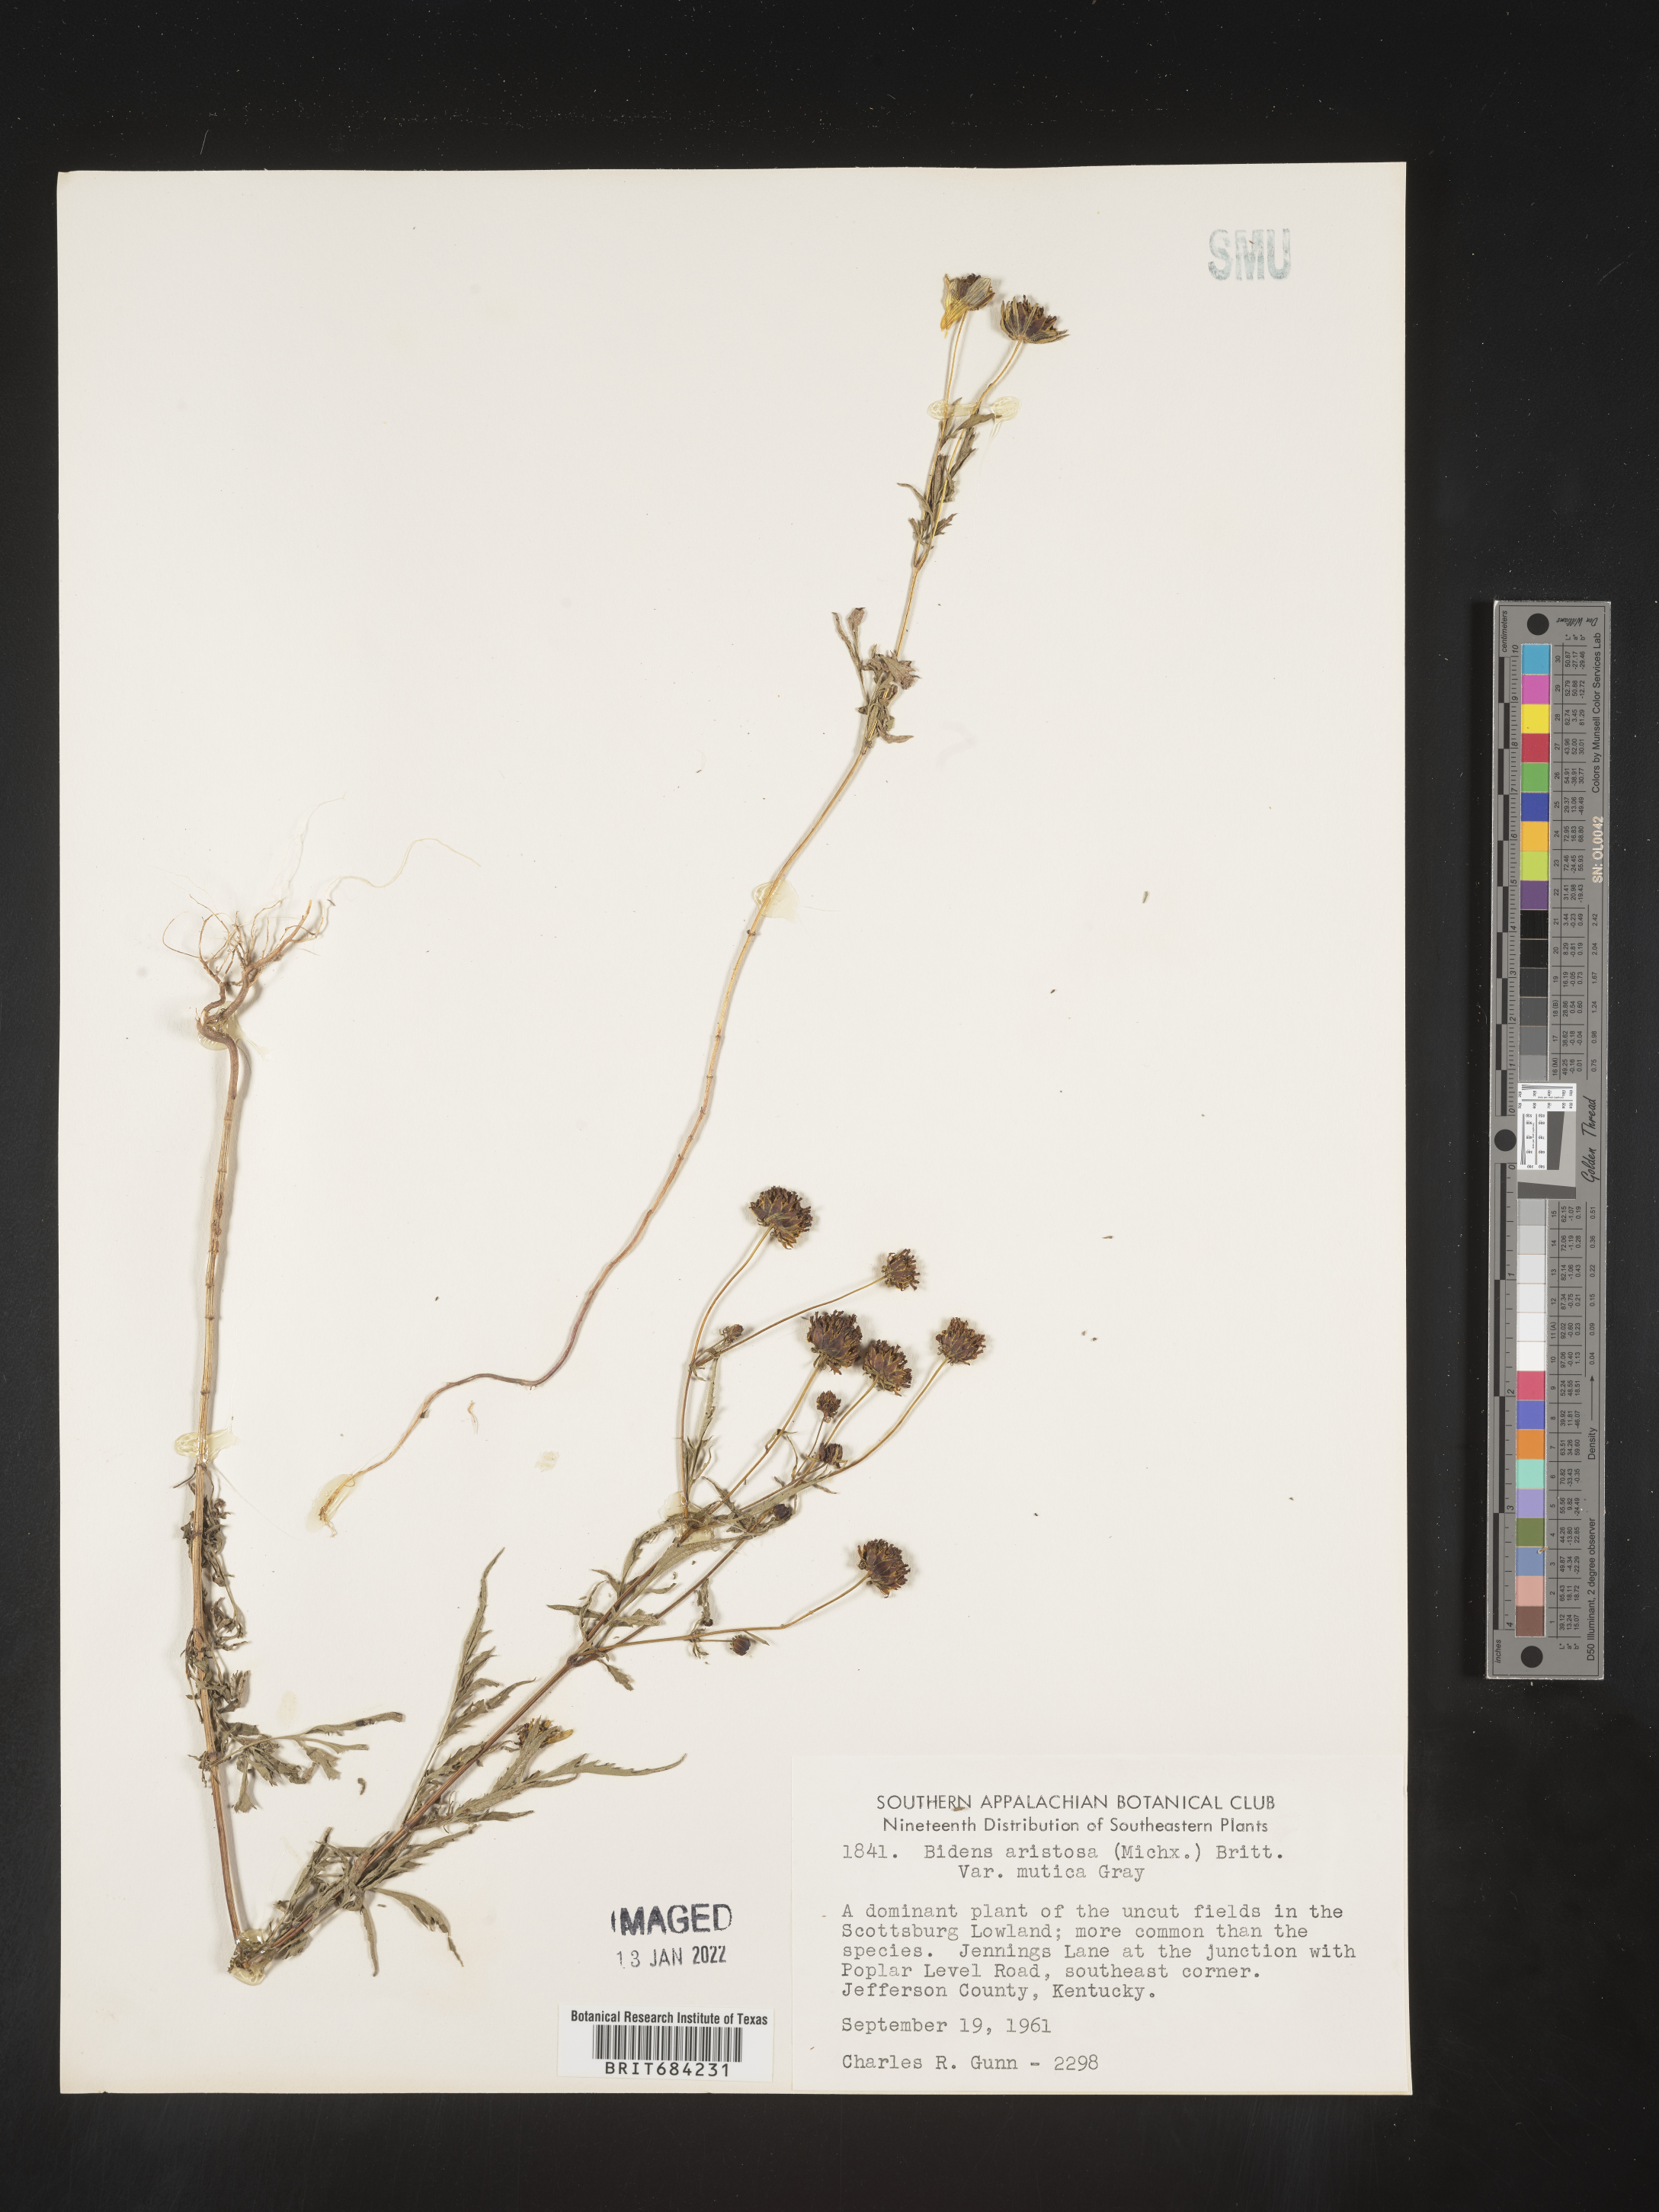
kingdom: Plantae
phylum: Tracheophyta
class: Magnoliopsida
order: Asterales
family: Asteraceae
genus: Bidens
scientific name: Bidens aristosa
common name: Western tickseed
